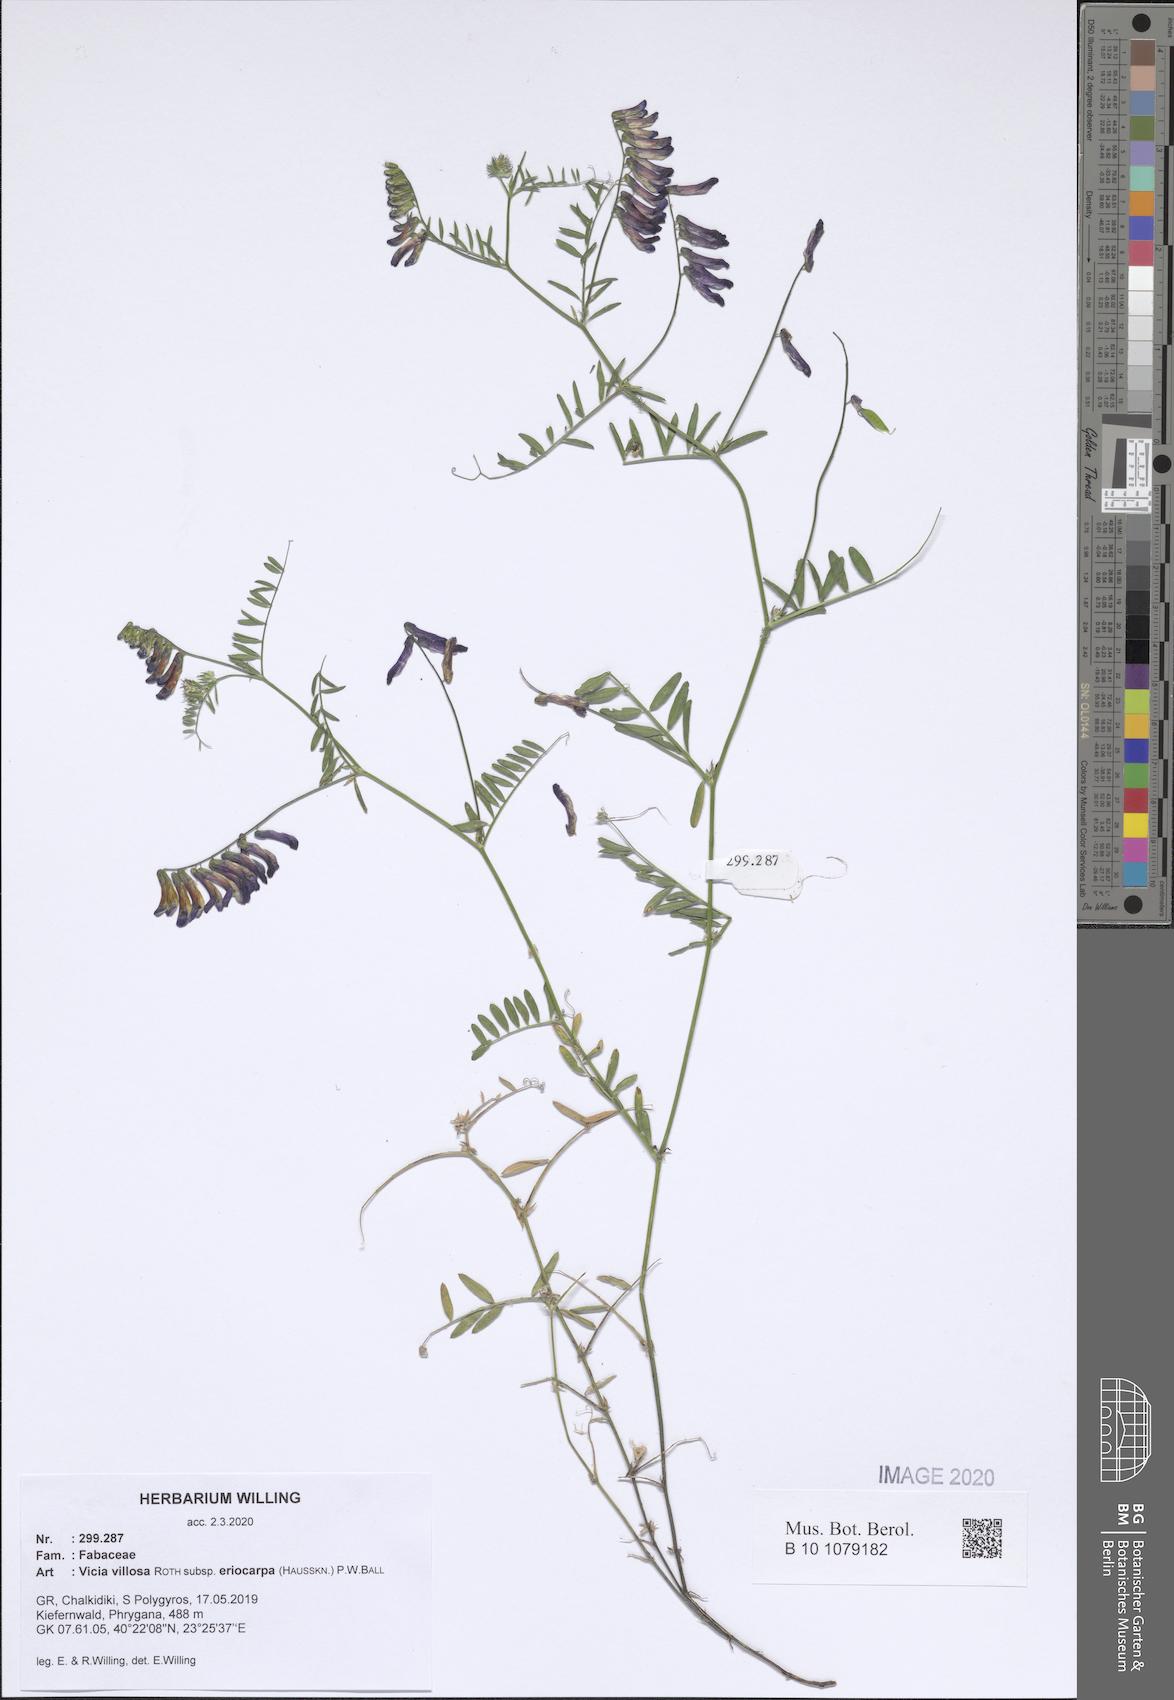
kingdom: Plantae
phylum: Tracheophyta
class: Magnoliopsida
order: Fabales
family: Fabaceae
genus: Vicia
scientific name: Vicia eriocarpa
